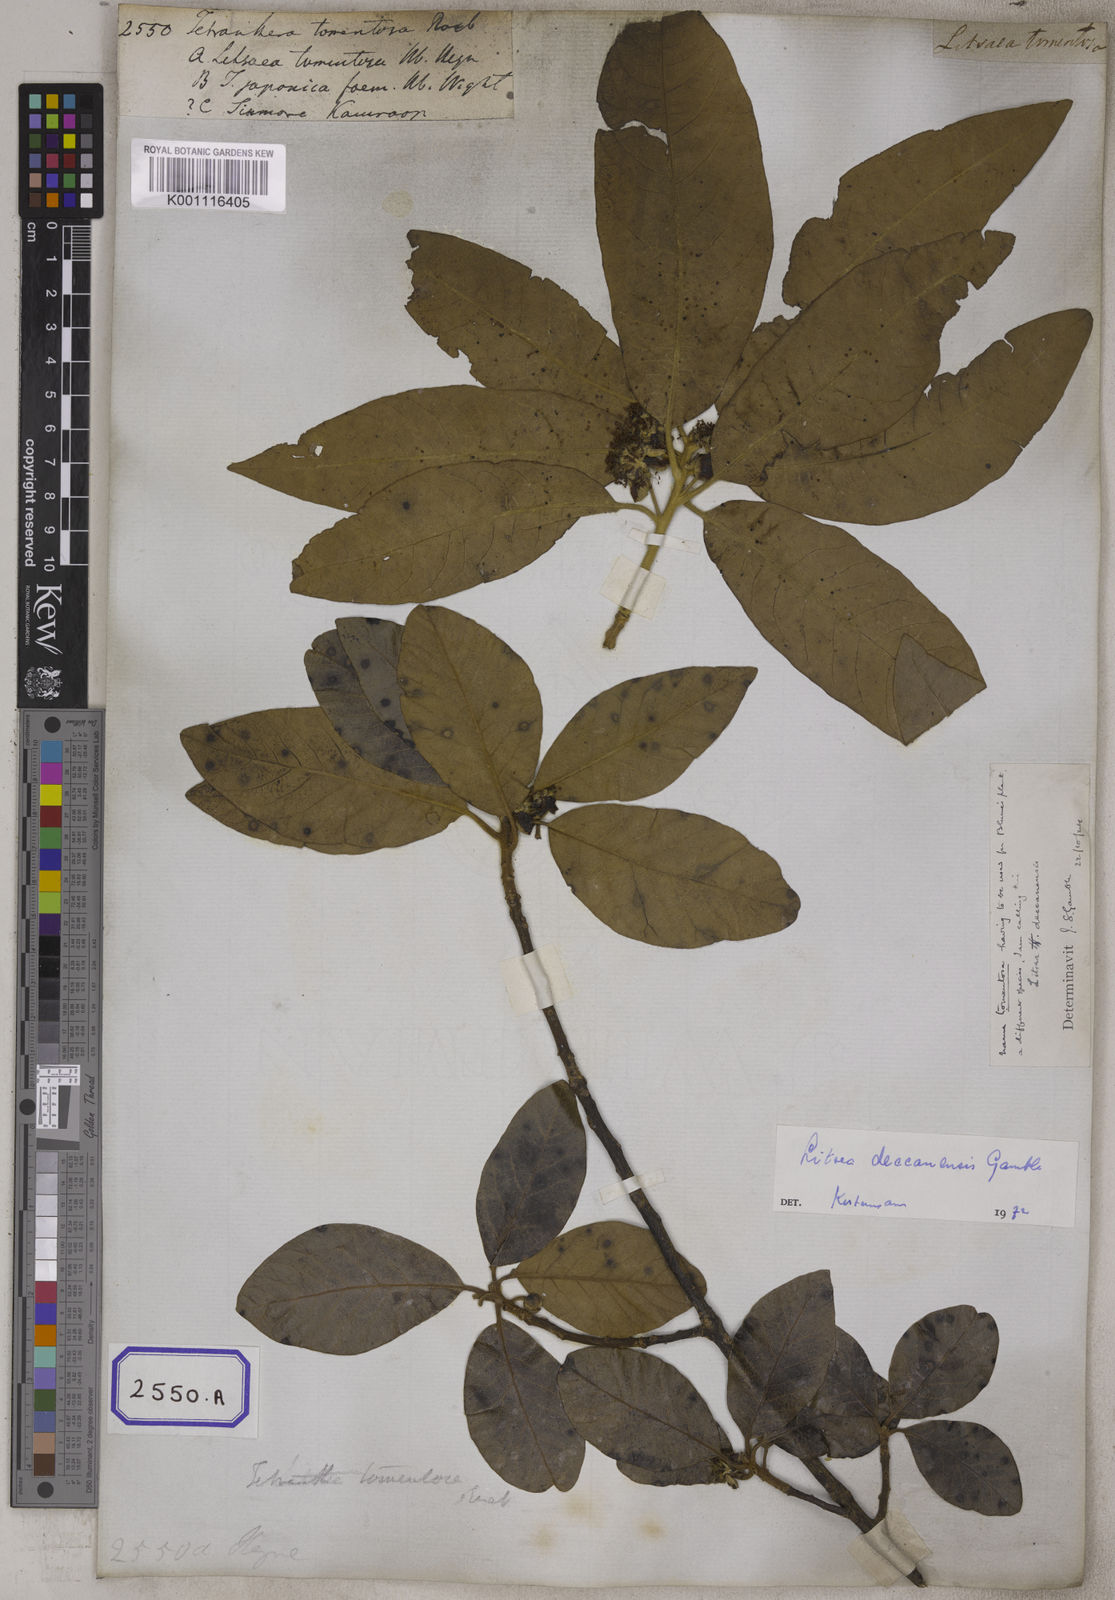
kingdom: Plantae
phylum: Tracheophyta
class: Magnoliopsida
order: Laurales
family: Lauraceae
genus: Litsea
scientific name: Litsea
